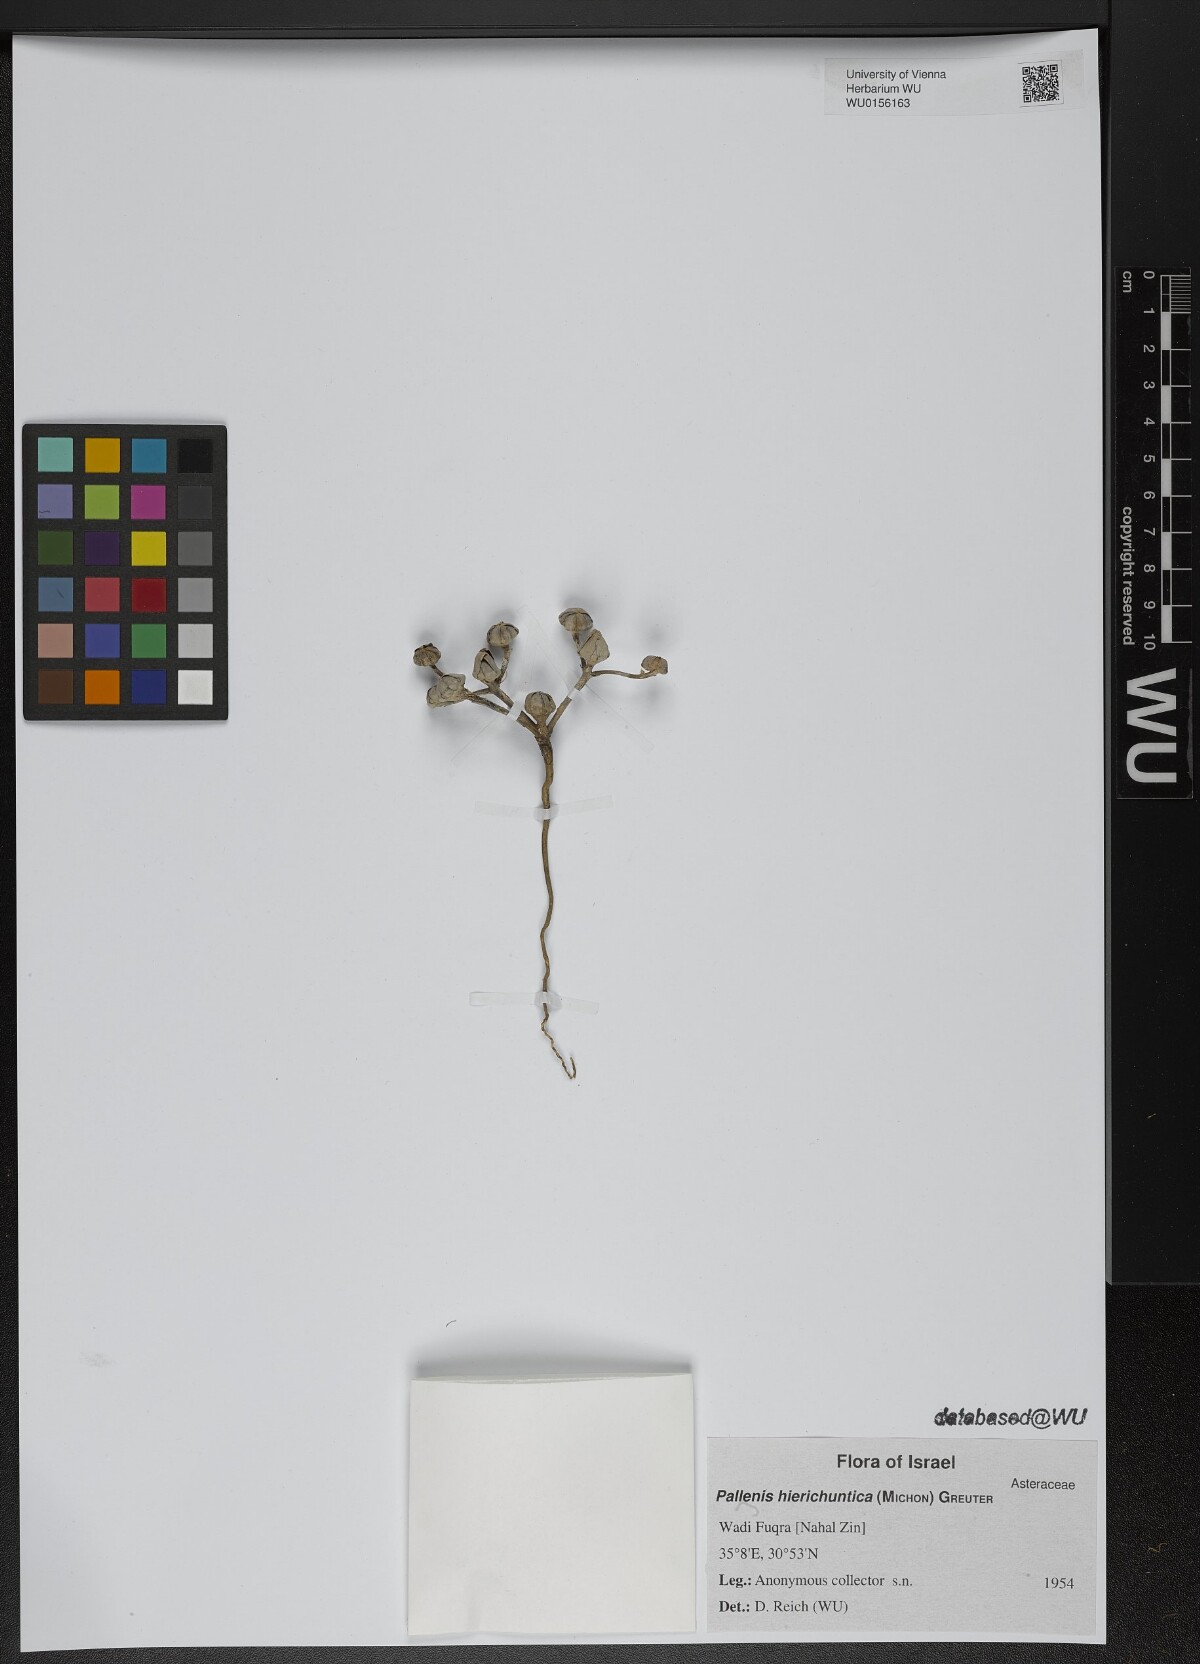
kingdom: Plantae
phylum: Tracheophyta
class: Magnoliopsida
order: Asterales
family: Asteraceae
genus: Pallenis
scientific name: Pallenis hierochuntica
